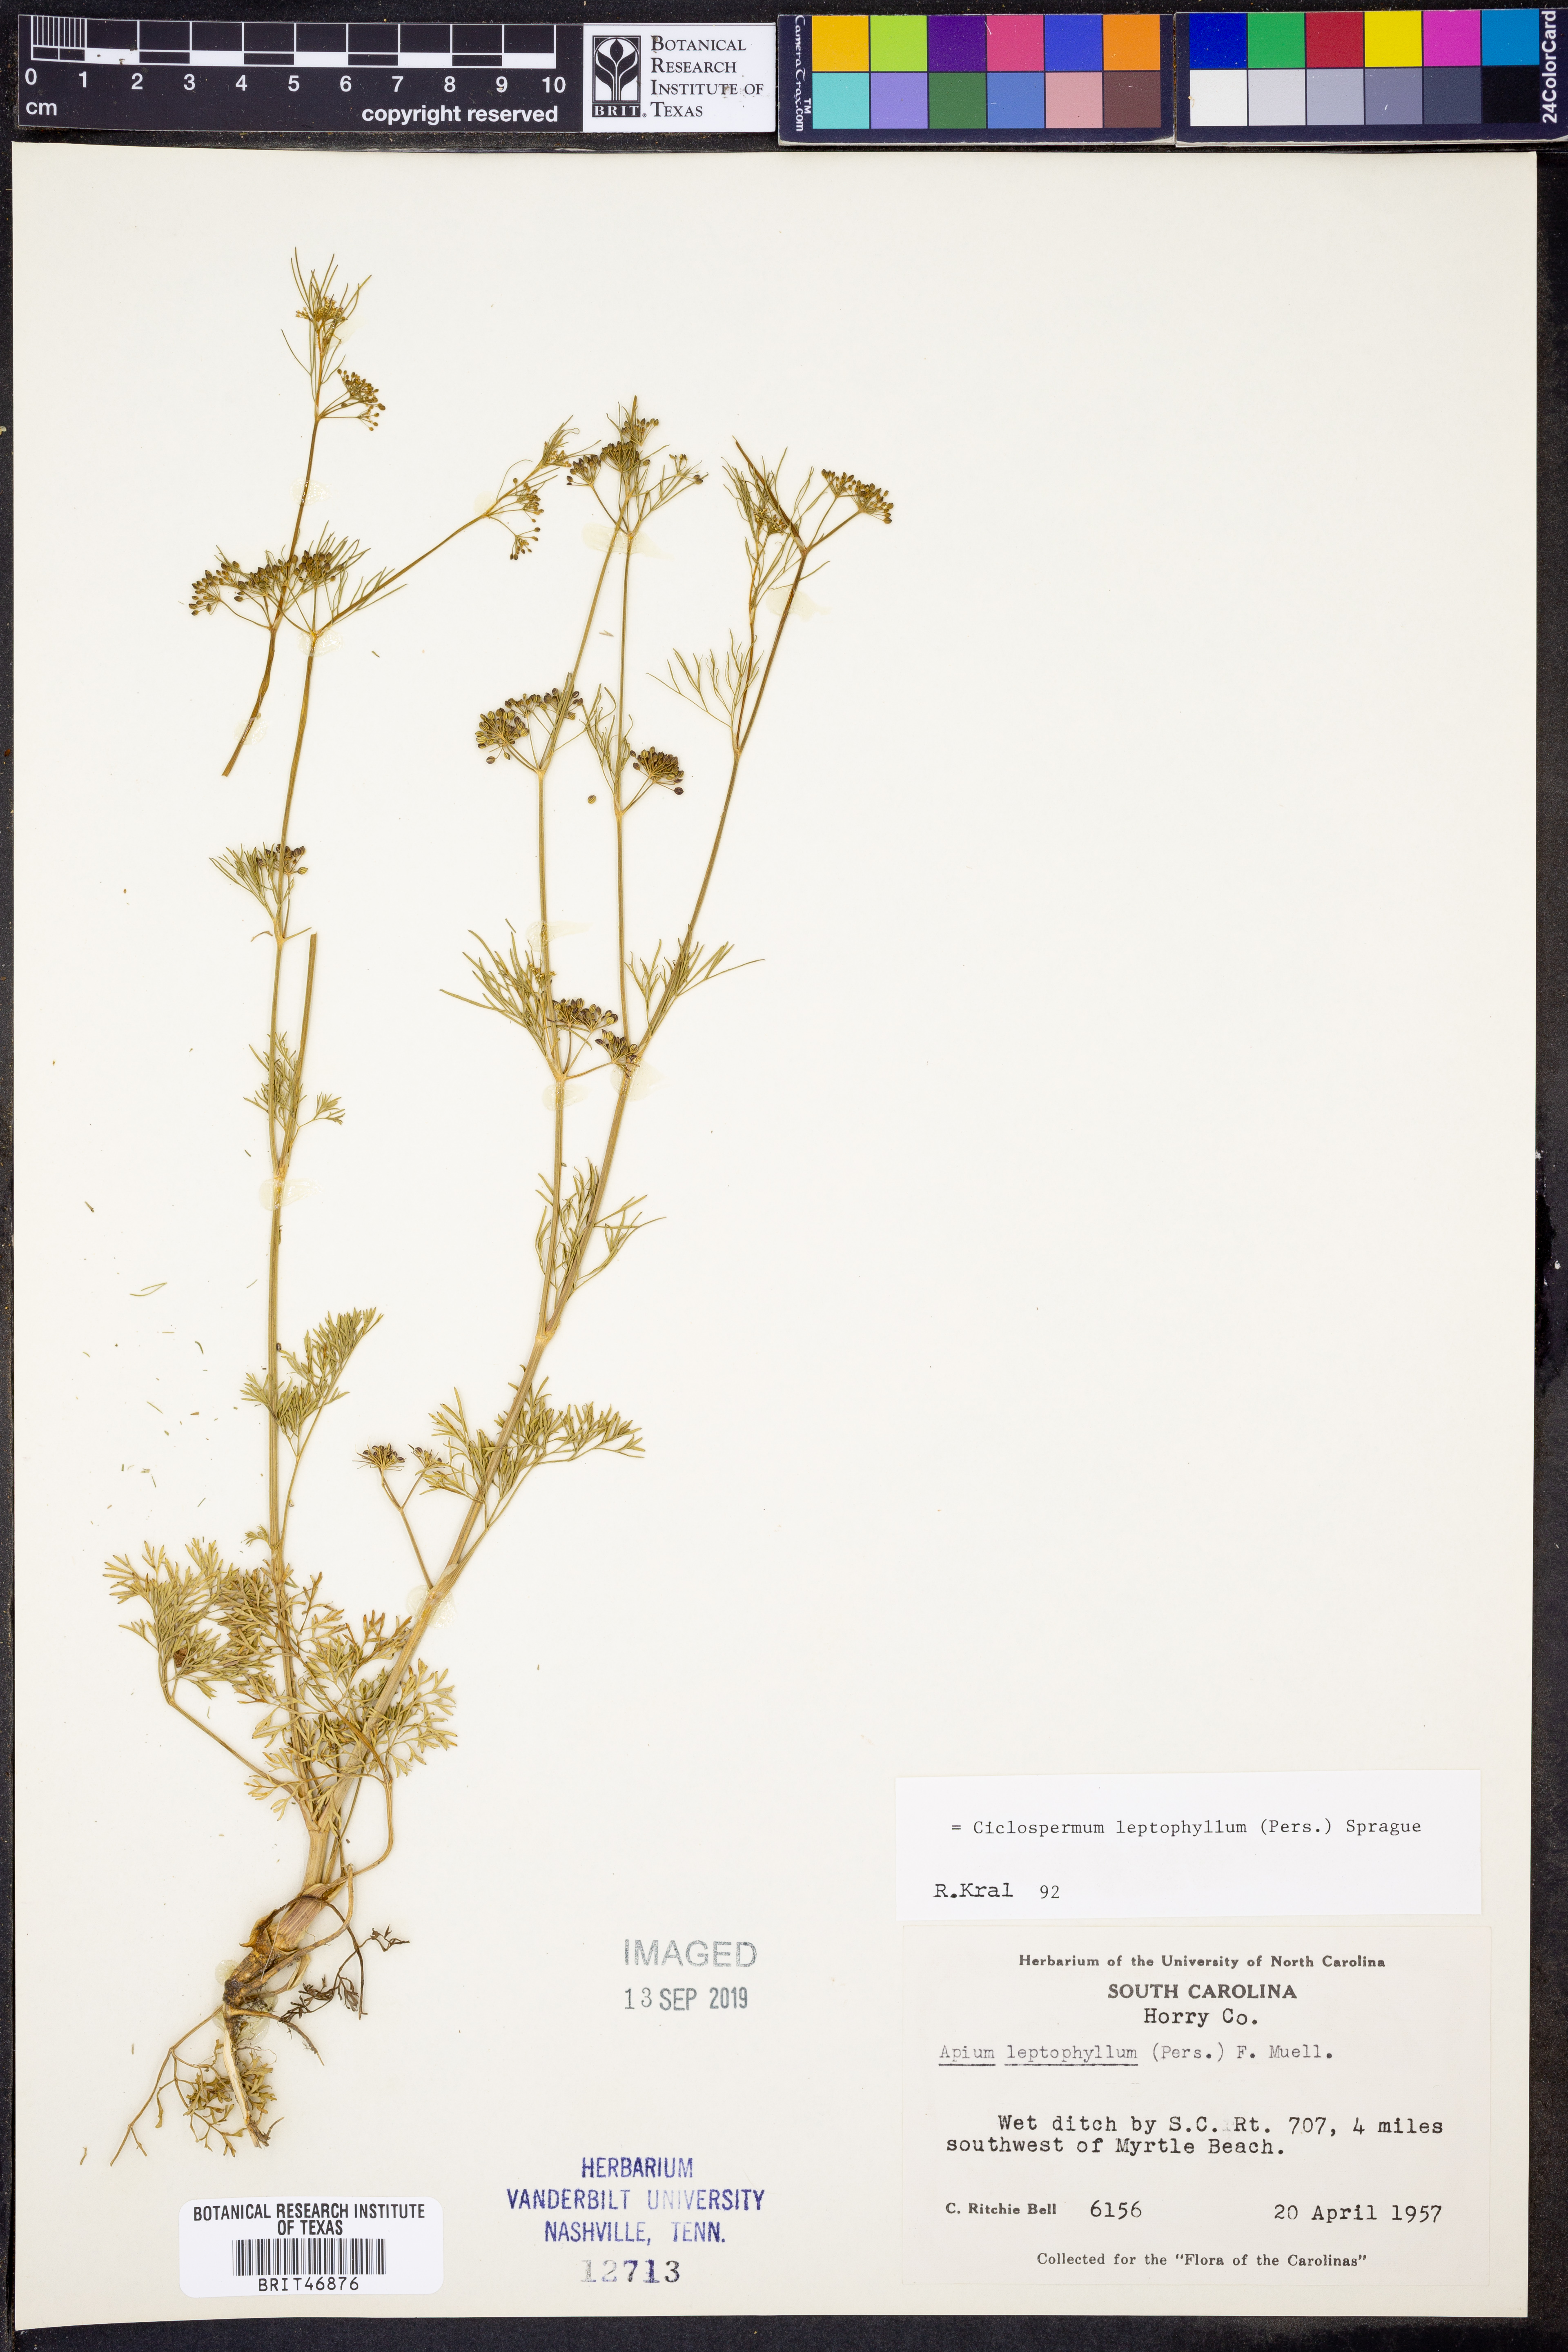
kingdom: Plantae
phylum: Tracheophyta
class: Magnoliopsida
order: Apiales
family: Apiaceae
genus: Cyclospermum
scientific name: Cyclospermum leptophyllum
